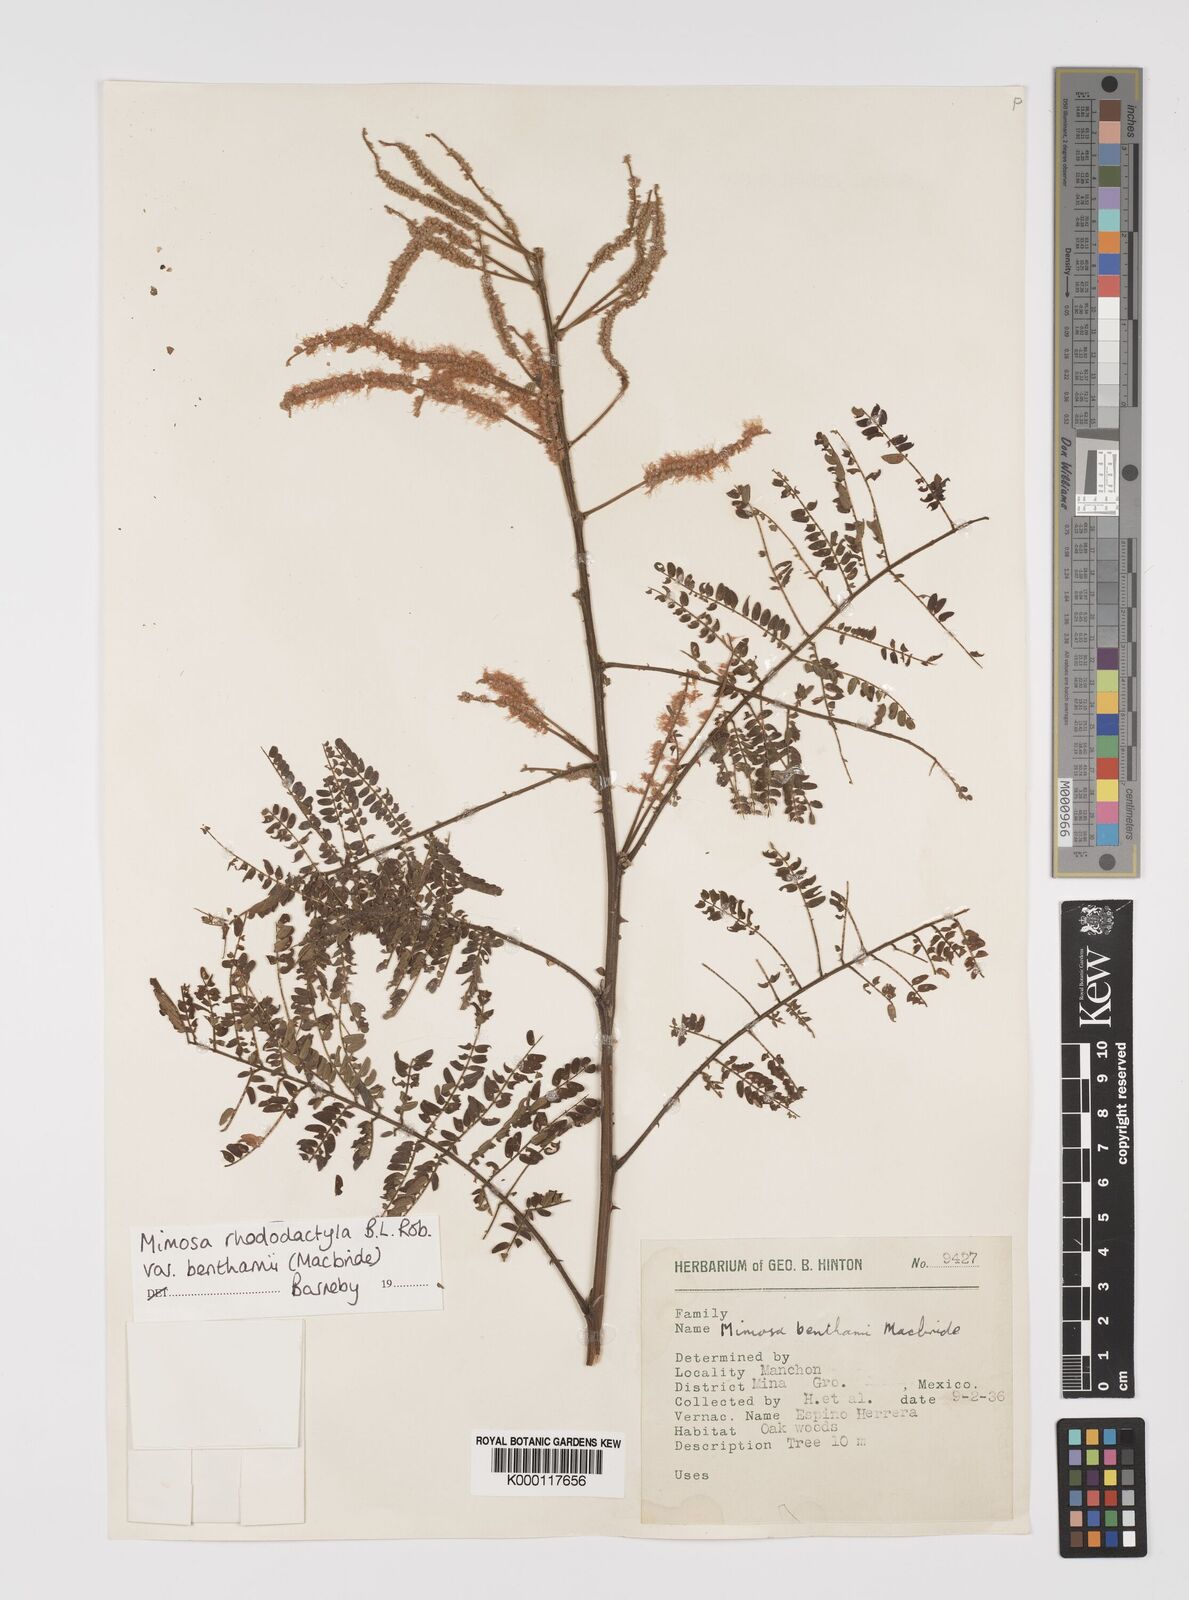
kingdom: Plantae
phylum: Tracheophyta
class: Magnoliopsida
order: Fabales
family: Fabaceae
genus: Mimosa
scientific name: Mimosa benthamii
